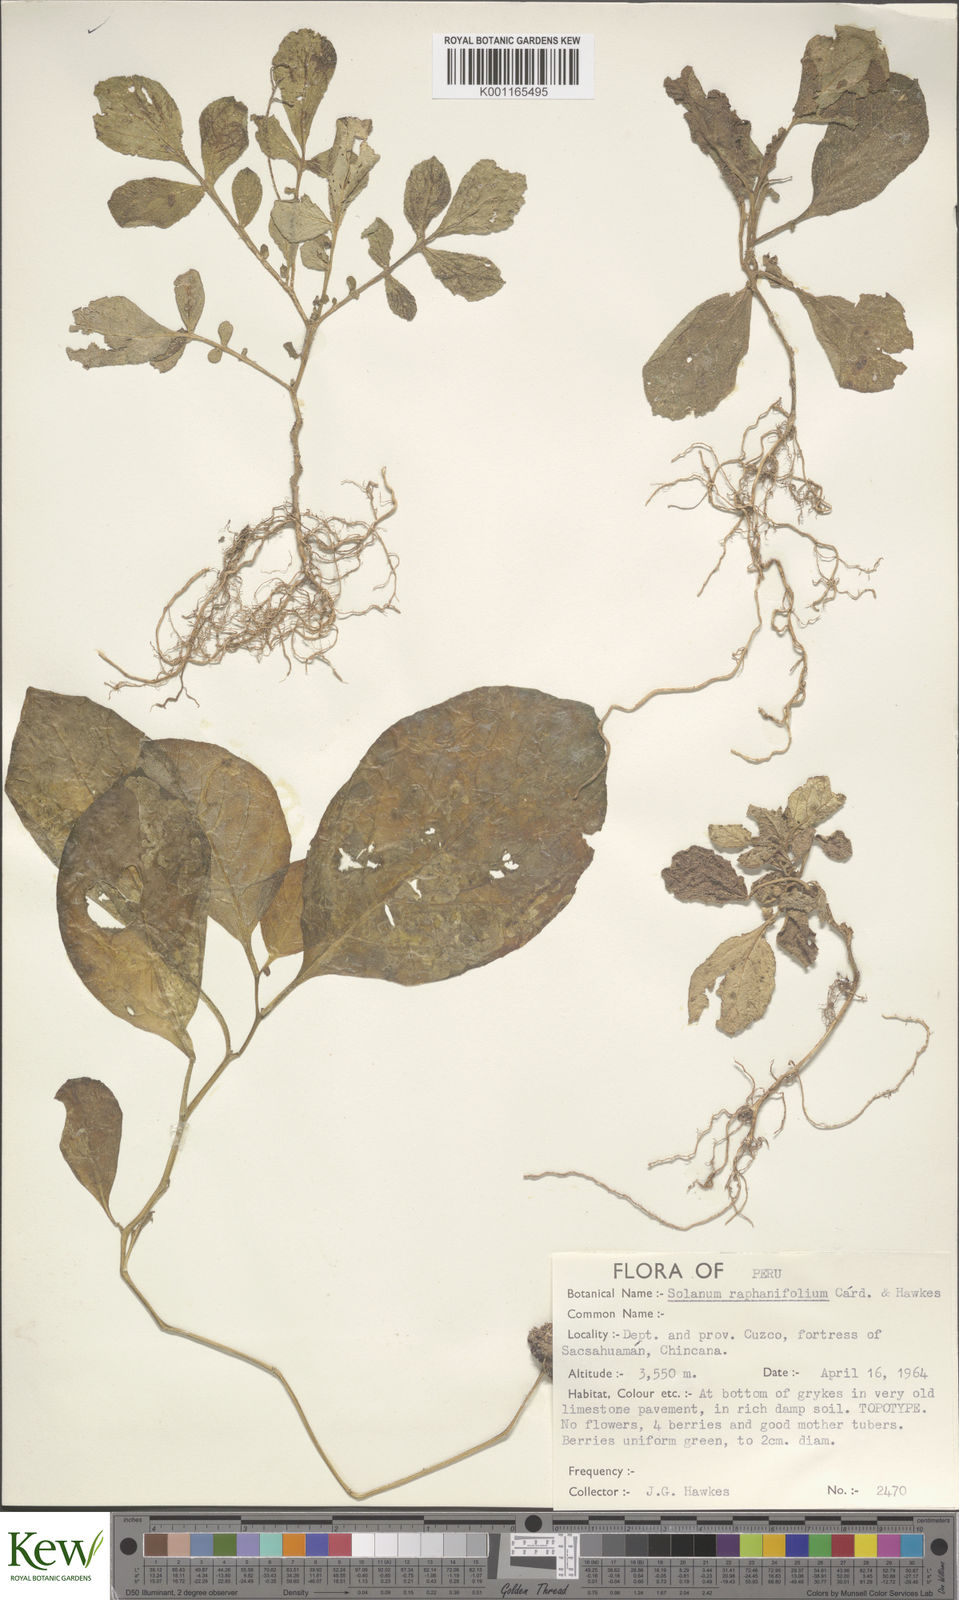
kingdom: Plantae
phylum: Tracheophyta
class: Magnoliopsida
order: Solanales
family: Solanaceae
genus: Solanum
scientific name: Solanum raphanifolium
